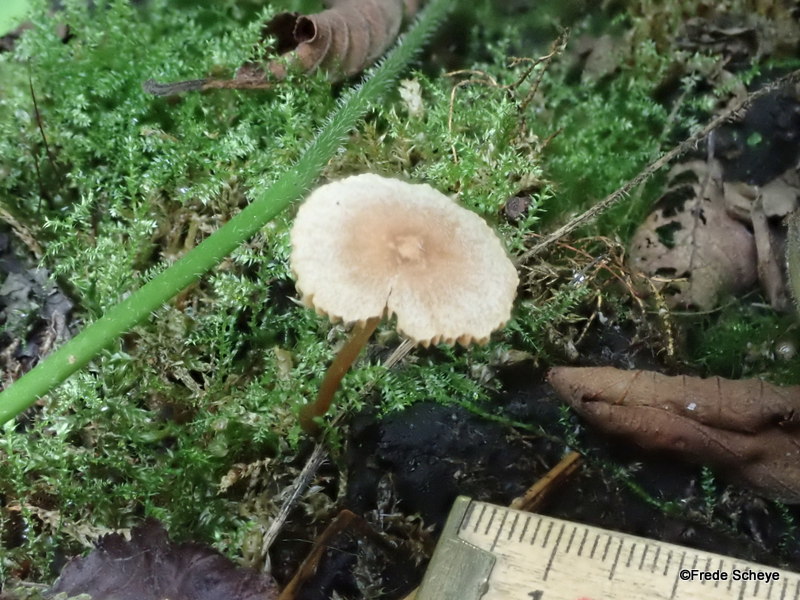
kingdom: Fungi
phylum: Basidiomycota
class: Agaricomycetes
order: Agaricales
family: Hymenogastraceae
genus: Naucoria
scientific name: Naucoria
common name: knaphat
